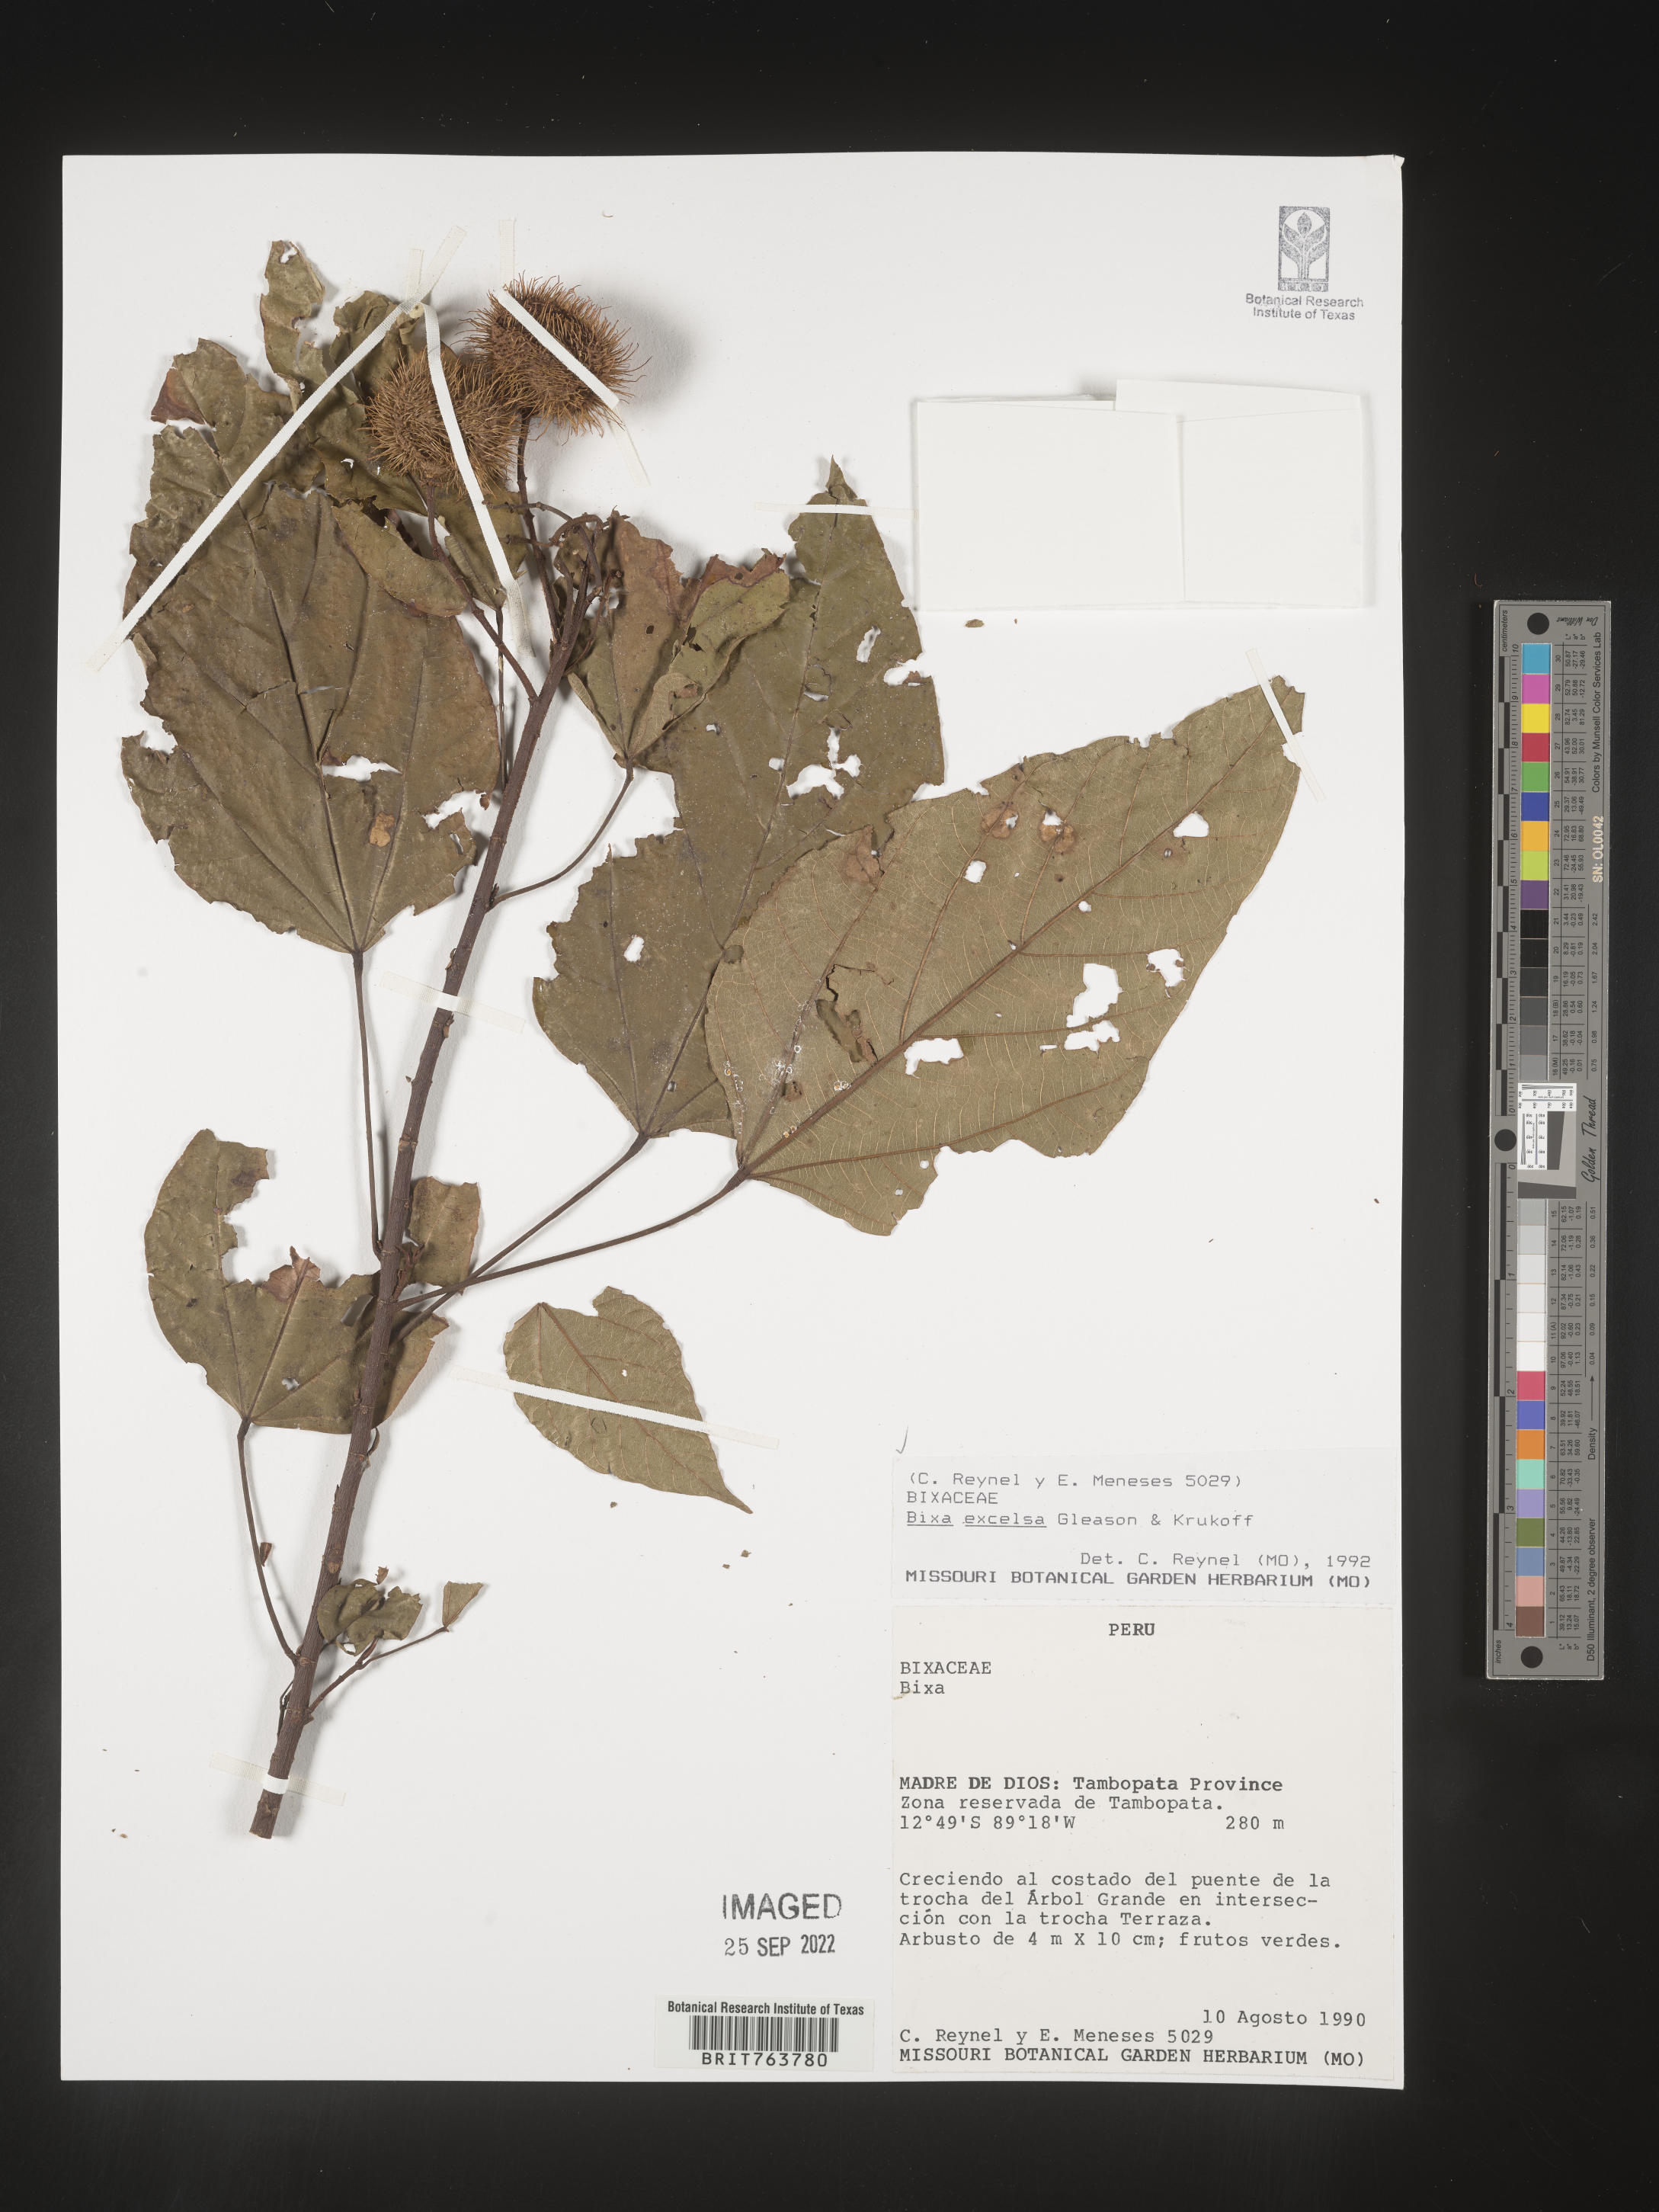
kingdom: Plantae
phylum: Tracheophyta
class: Magnoliopsida
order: Malvales
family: Bixaceae
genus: Bixa
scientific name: Bixa
